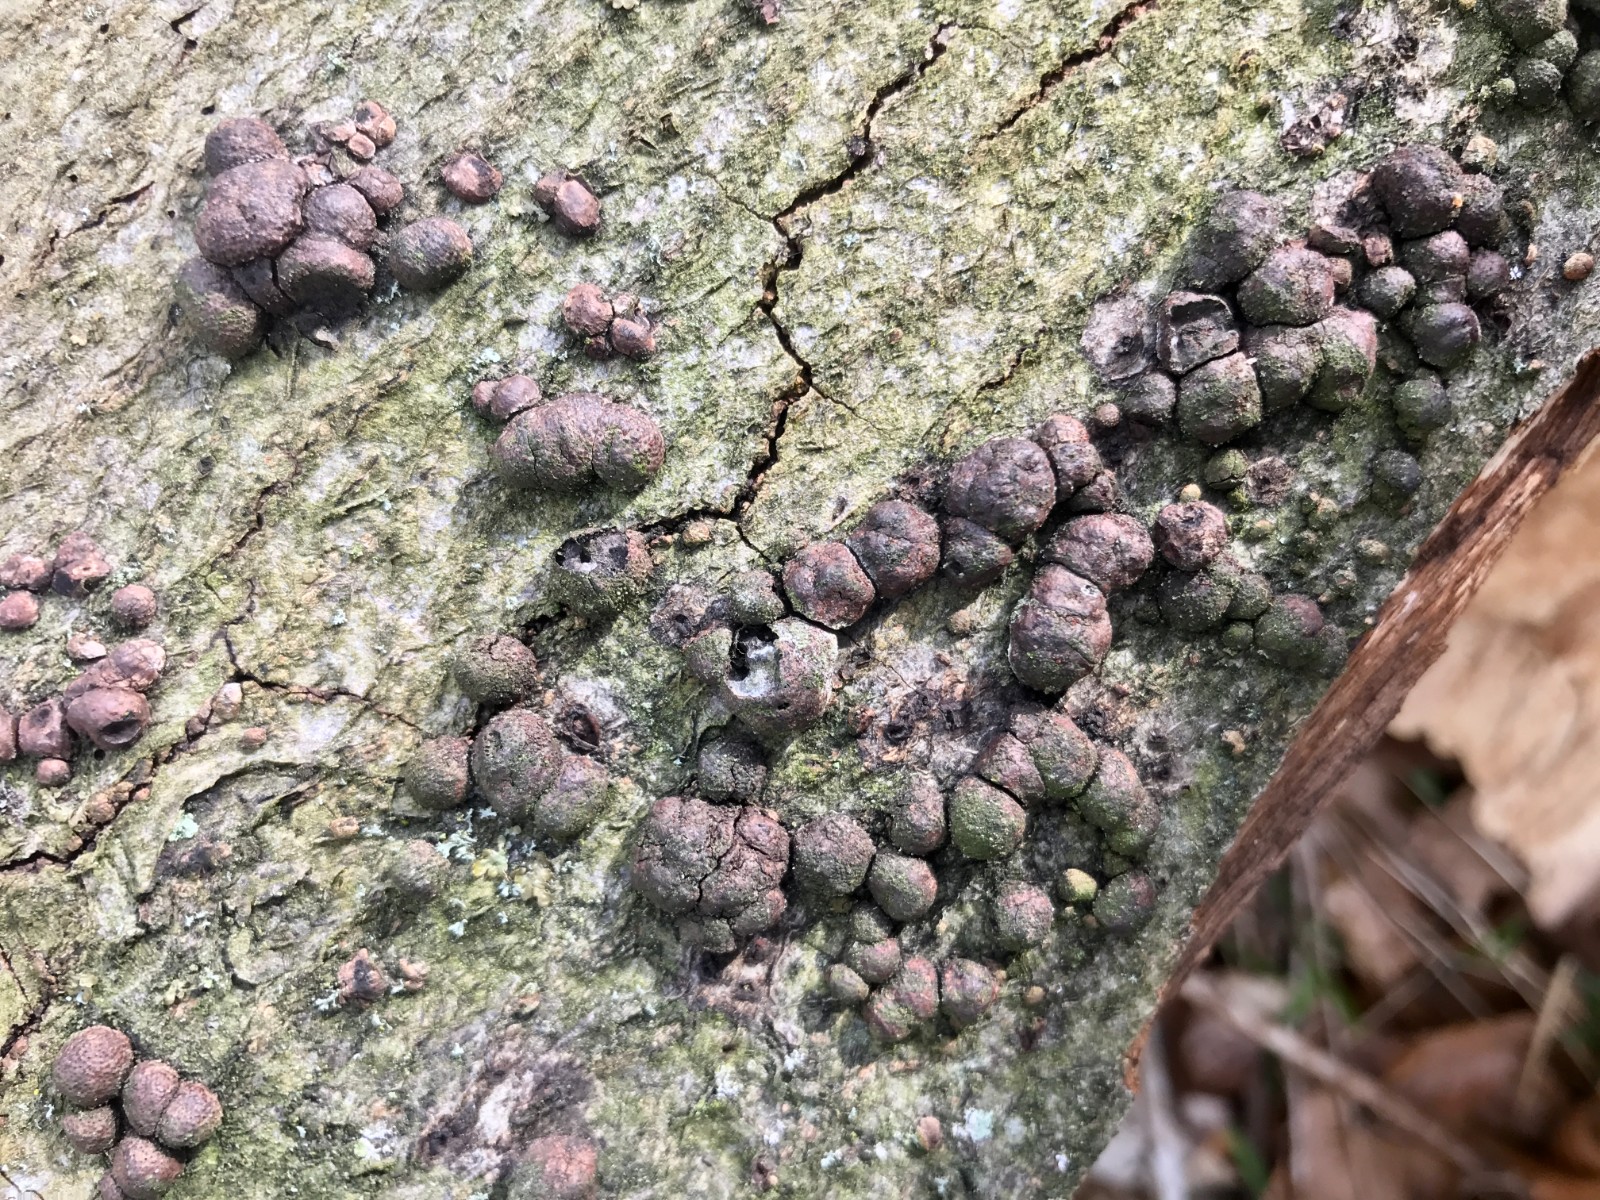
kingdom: Fungi
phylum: Ascomycota
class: Sordariomycetes
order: Xylariales
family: Hypoxylaceae
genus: Hypoxylon
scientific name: Hypoxylon fragiforme
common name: kuljordbær
